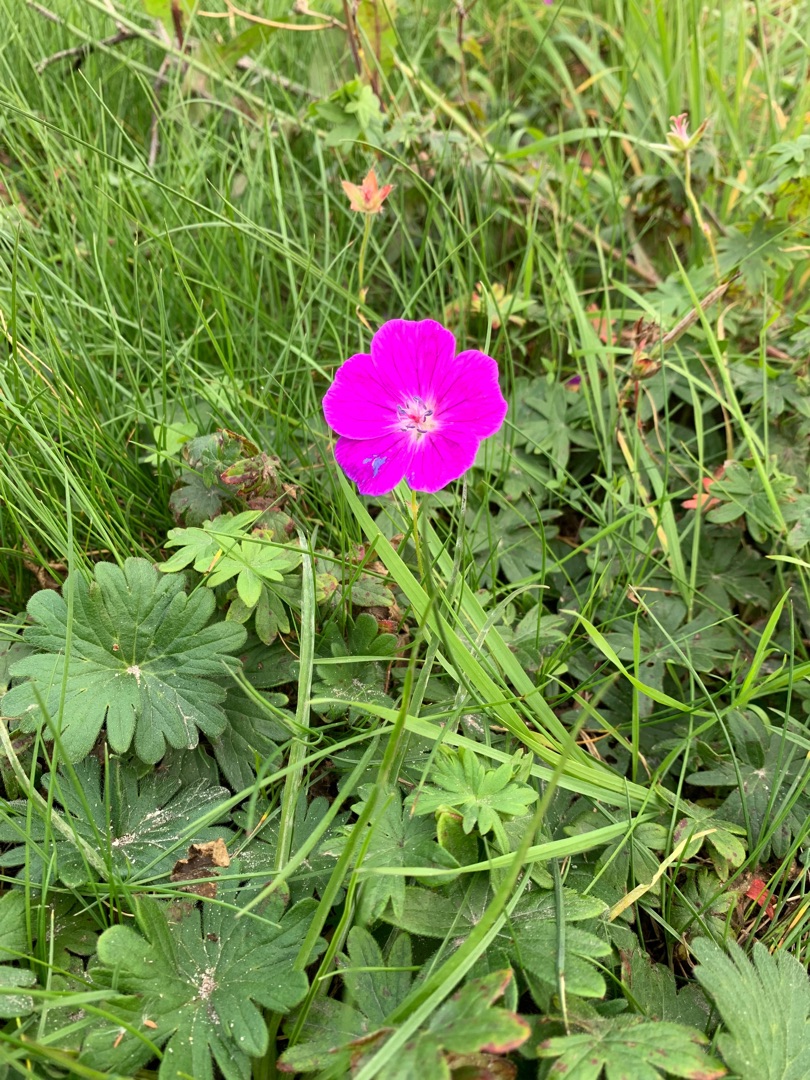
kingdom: Plantae
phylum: Tracheophyta
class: Magnoliopsida
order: Geraniales
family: Geraniaceae
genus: Geranium
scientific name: Geranium sanguineum
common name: Blodrød storkenæb
